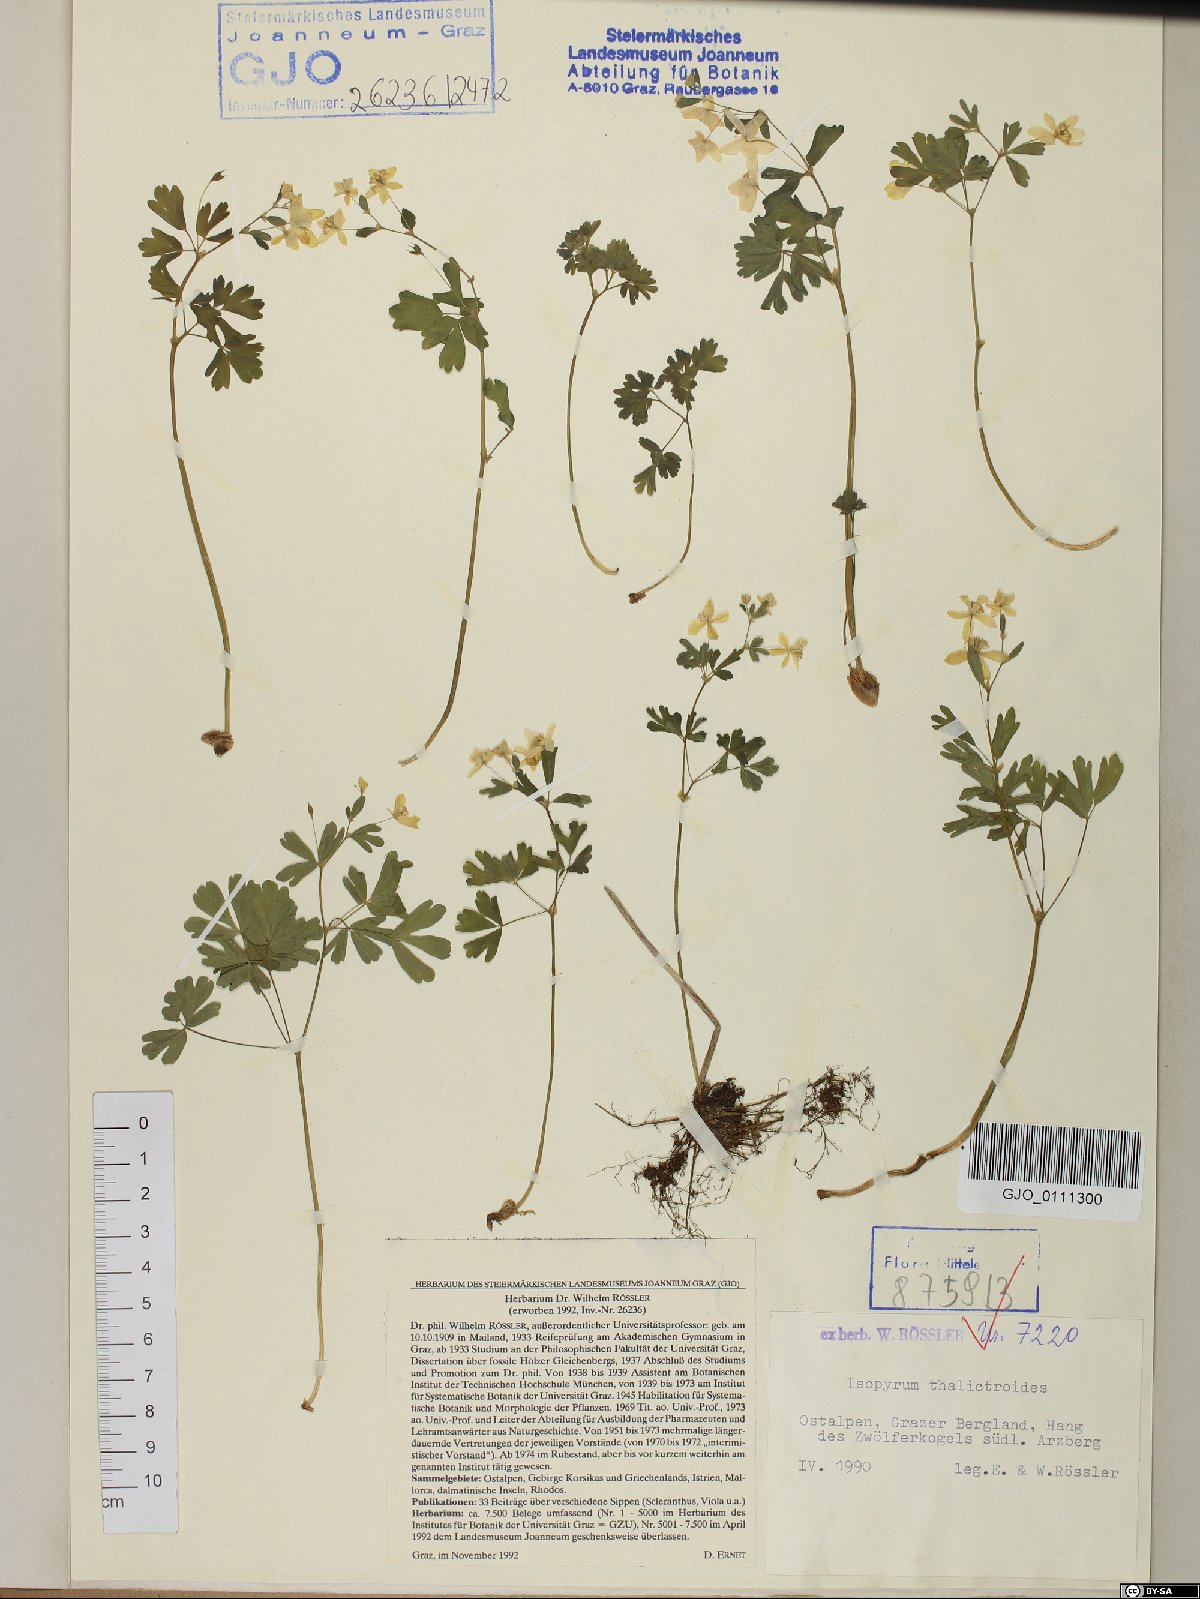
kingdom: Plantae
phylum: Tracheophyta
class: Magnoliopsida
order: Ranunculales
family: Ranunculaceae
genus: Isopyrum
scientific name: Isopyrum thalictroides
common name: Isopyrum
